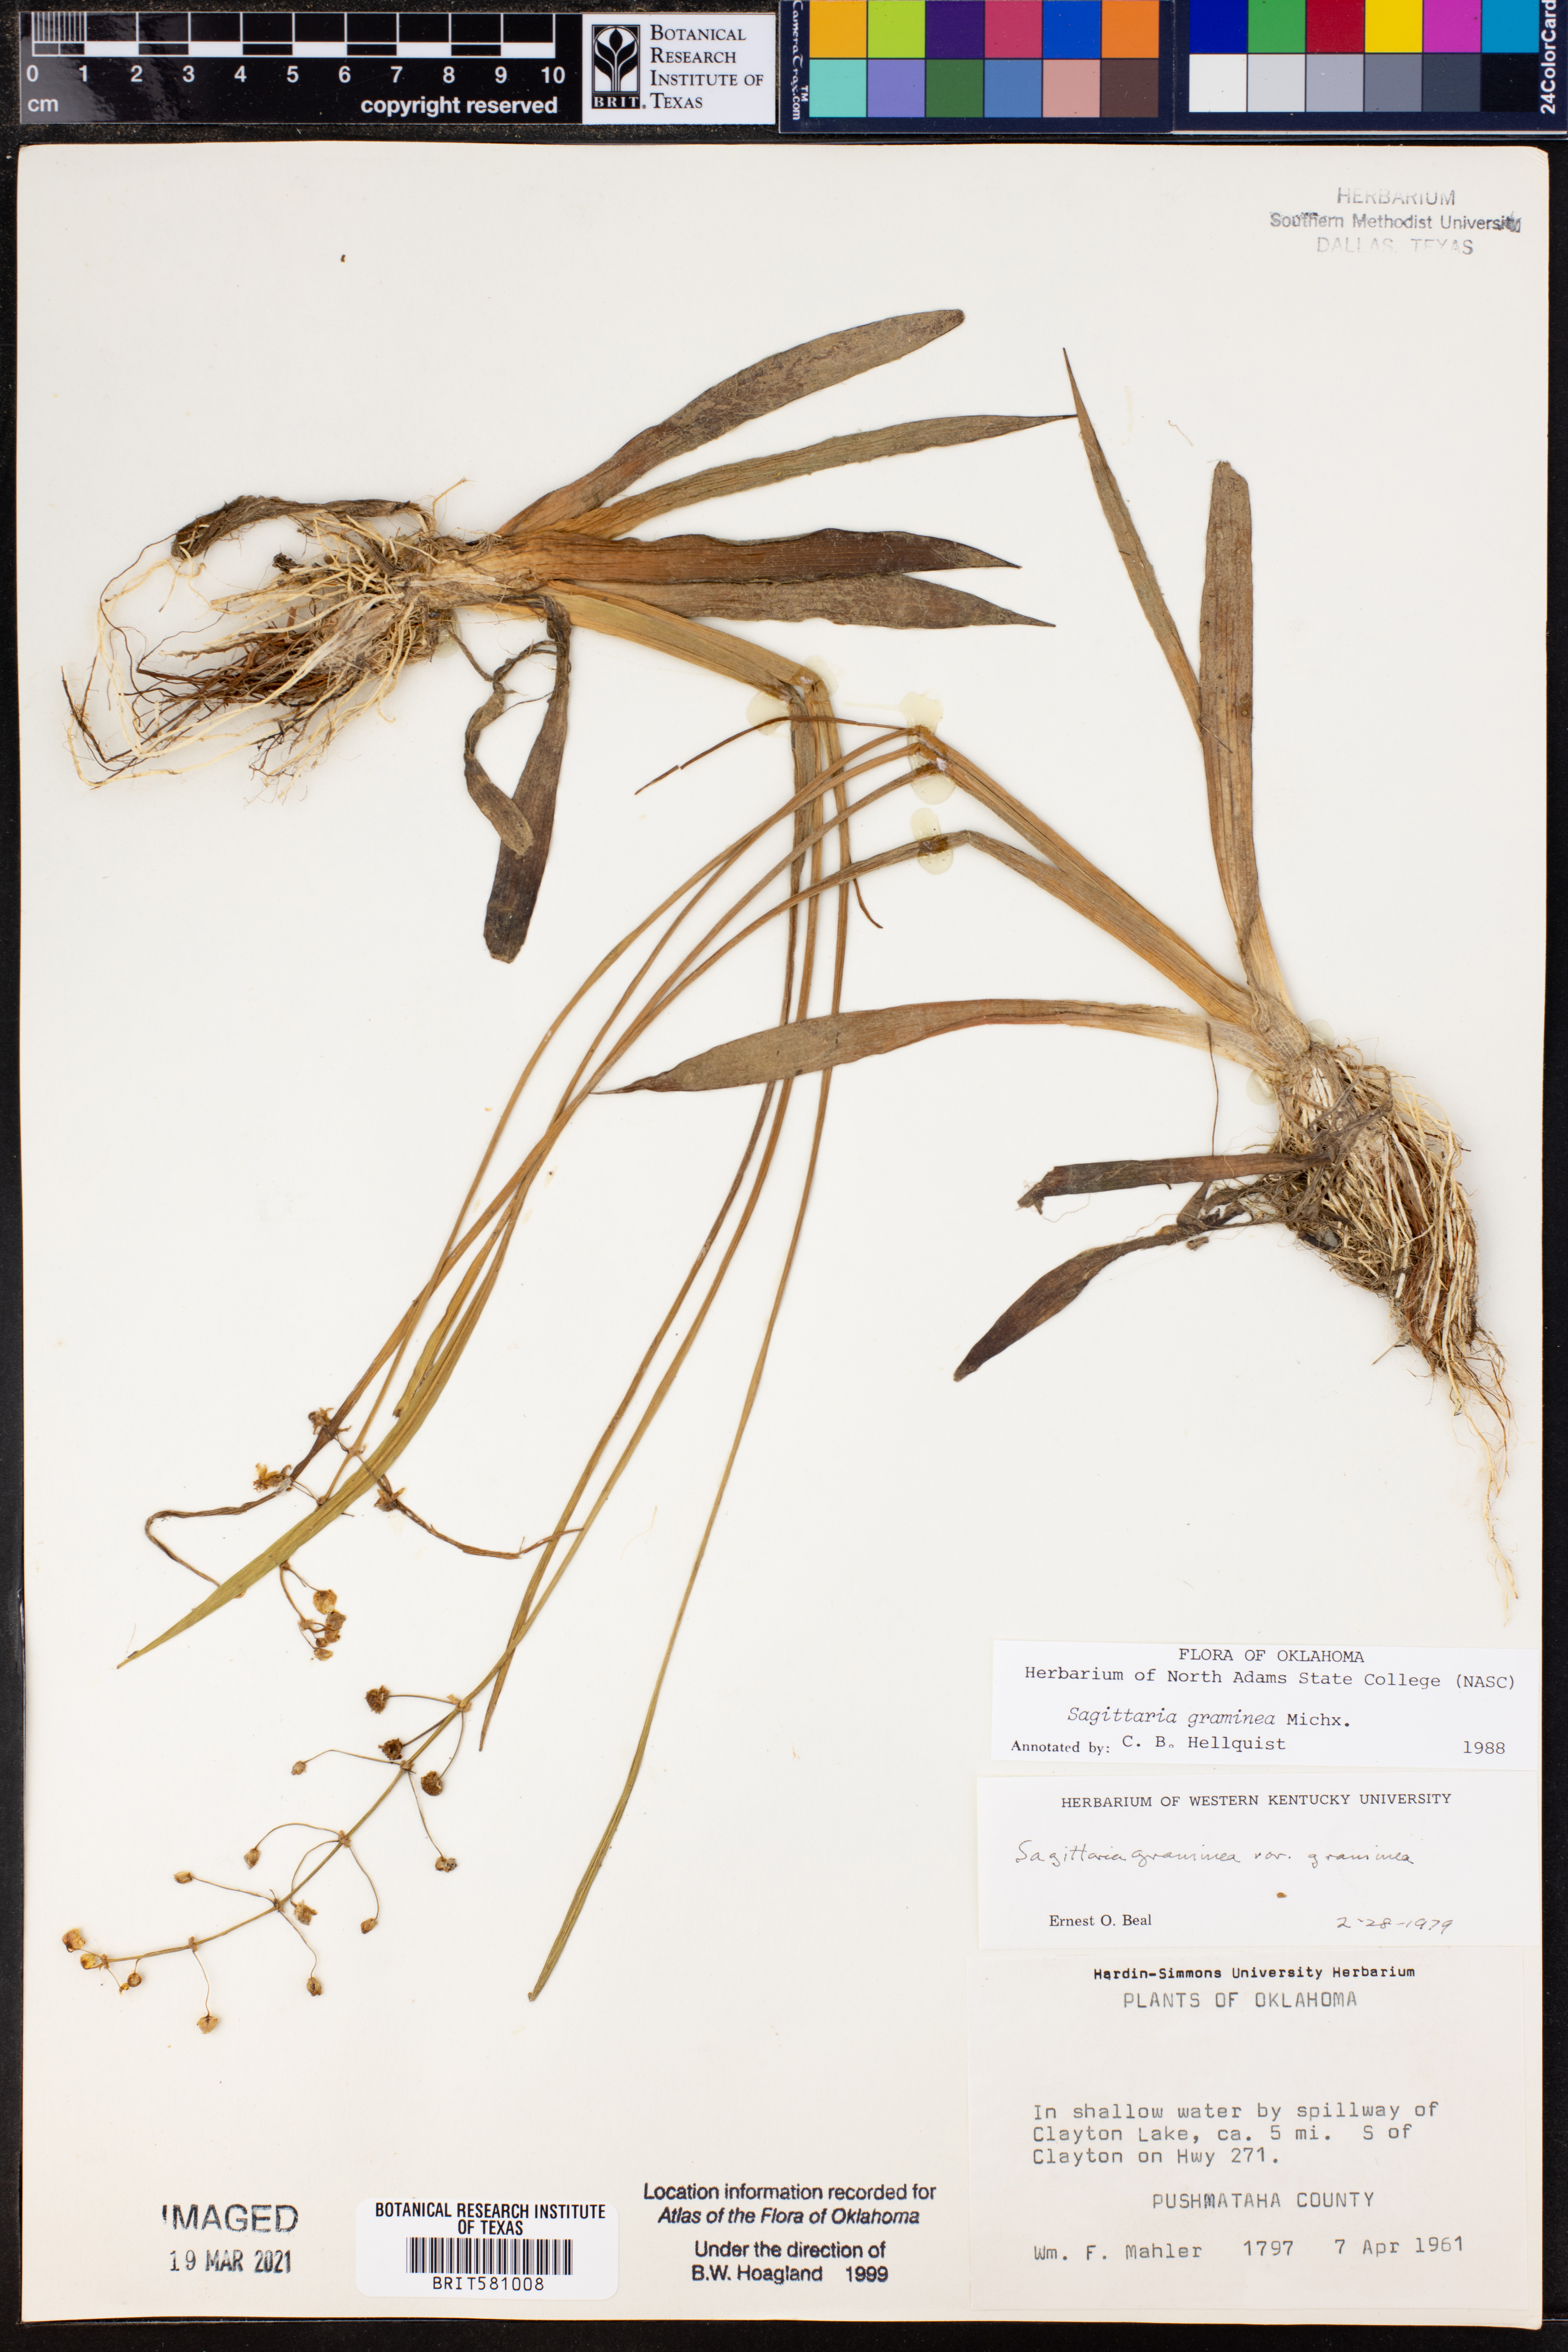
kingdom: Plantae
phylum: Tracheophyta
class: Liliopsida
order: Alismatales
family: Alismataceae
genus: Sagittaria
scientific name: Sagittaria graminea
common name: Grass-leaved arrowhead
